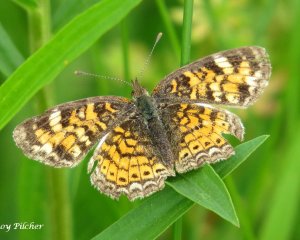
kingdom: Animalia
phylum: Arthropoda
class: Insecta
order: Lepidoptera
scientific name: Lepidoptera
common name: Butterflies
